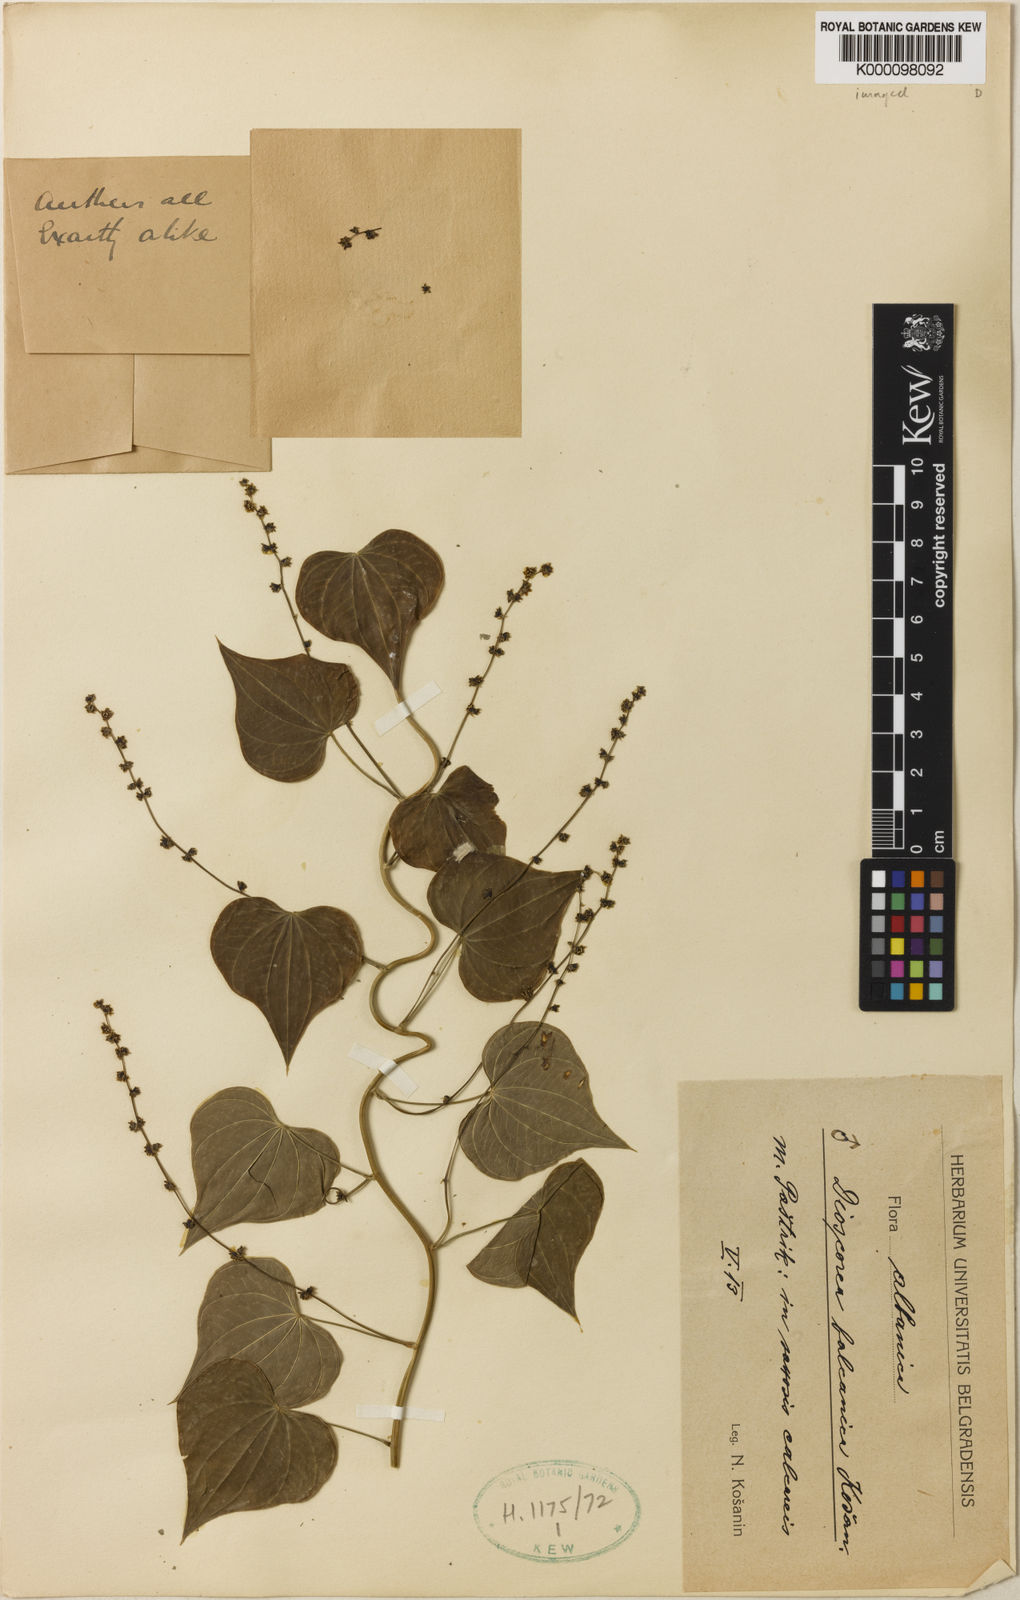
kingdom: Plantae
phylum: Tracheophyta
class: Liliopsida
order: Dioscoreales
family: Dioscoreaceae
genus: Dioscorea
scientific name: Dioscorea
